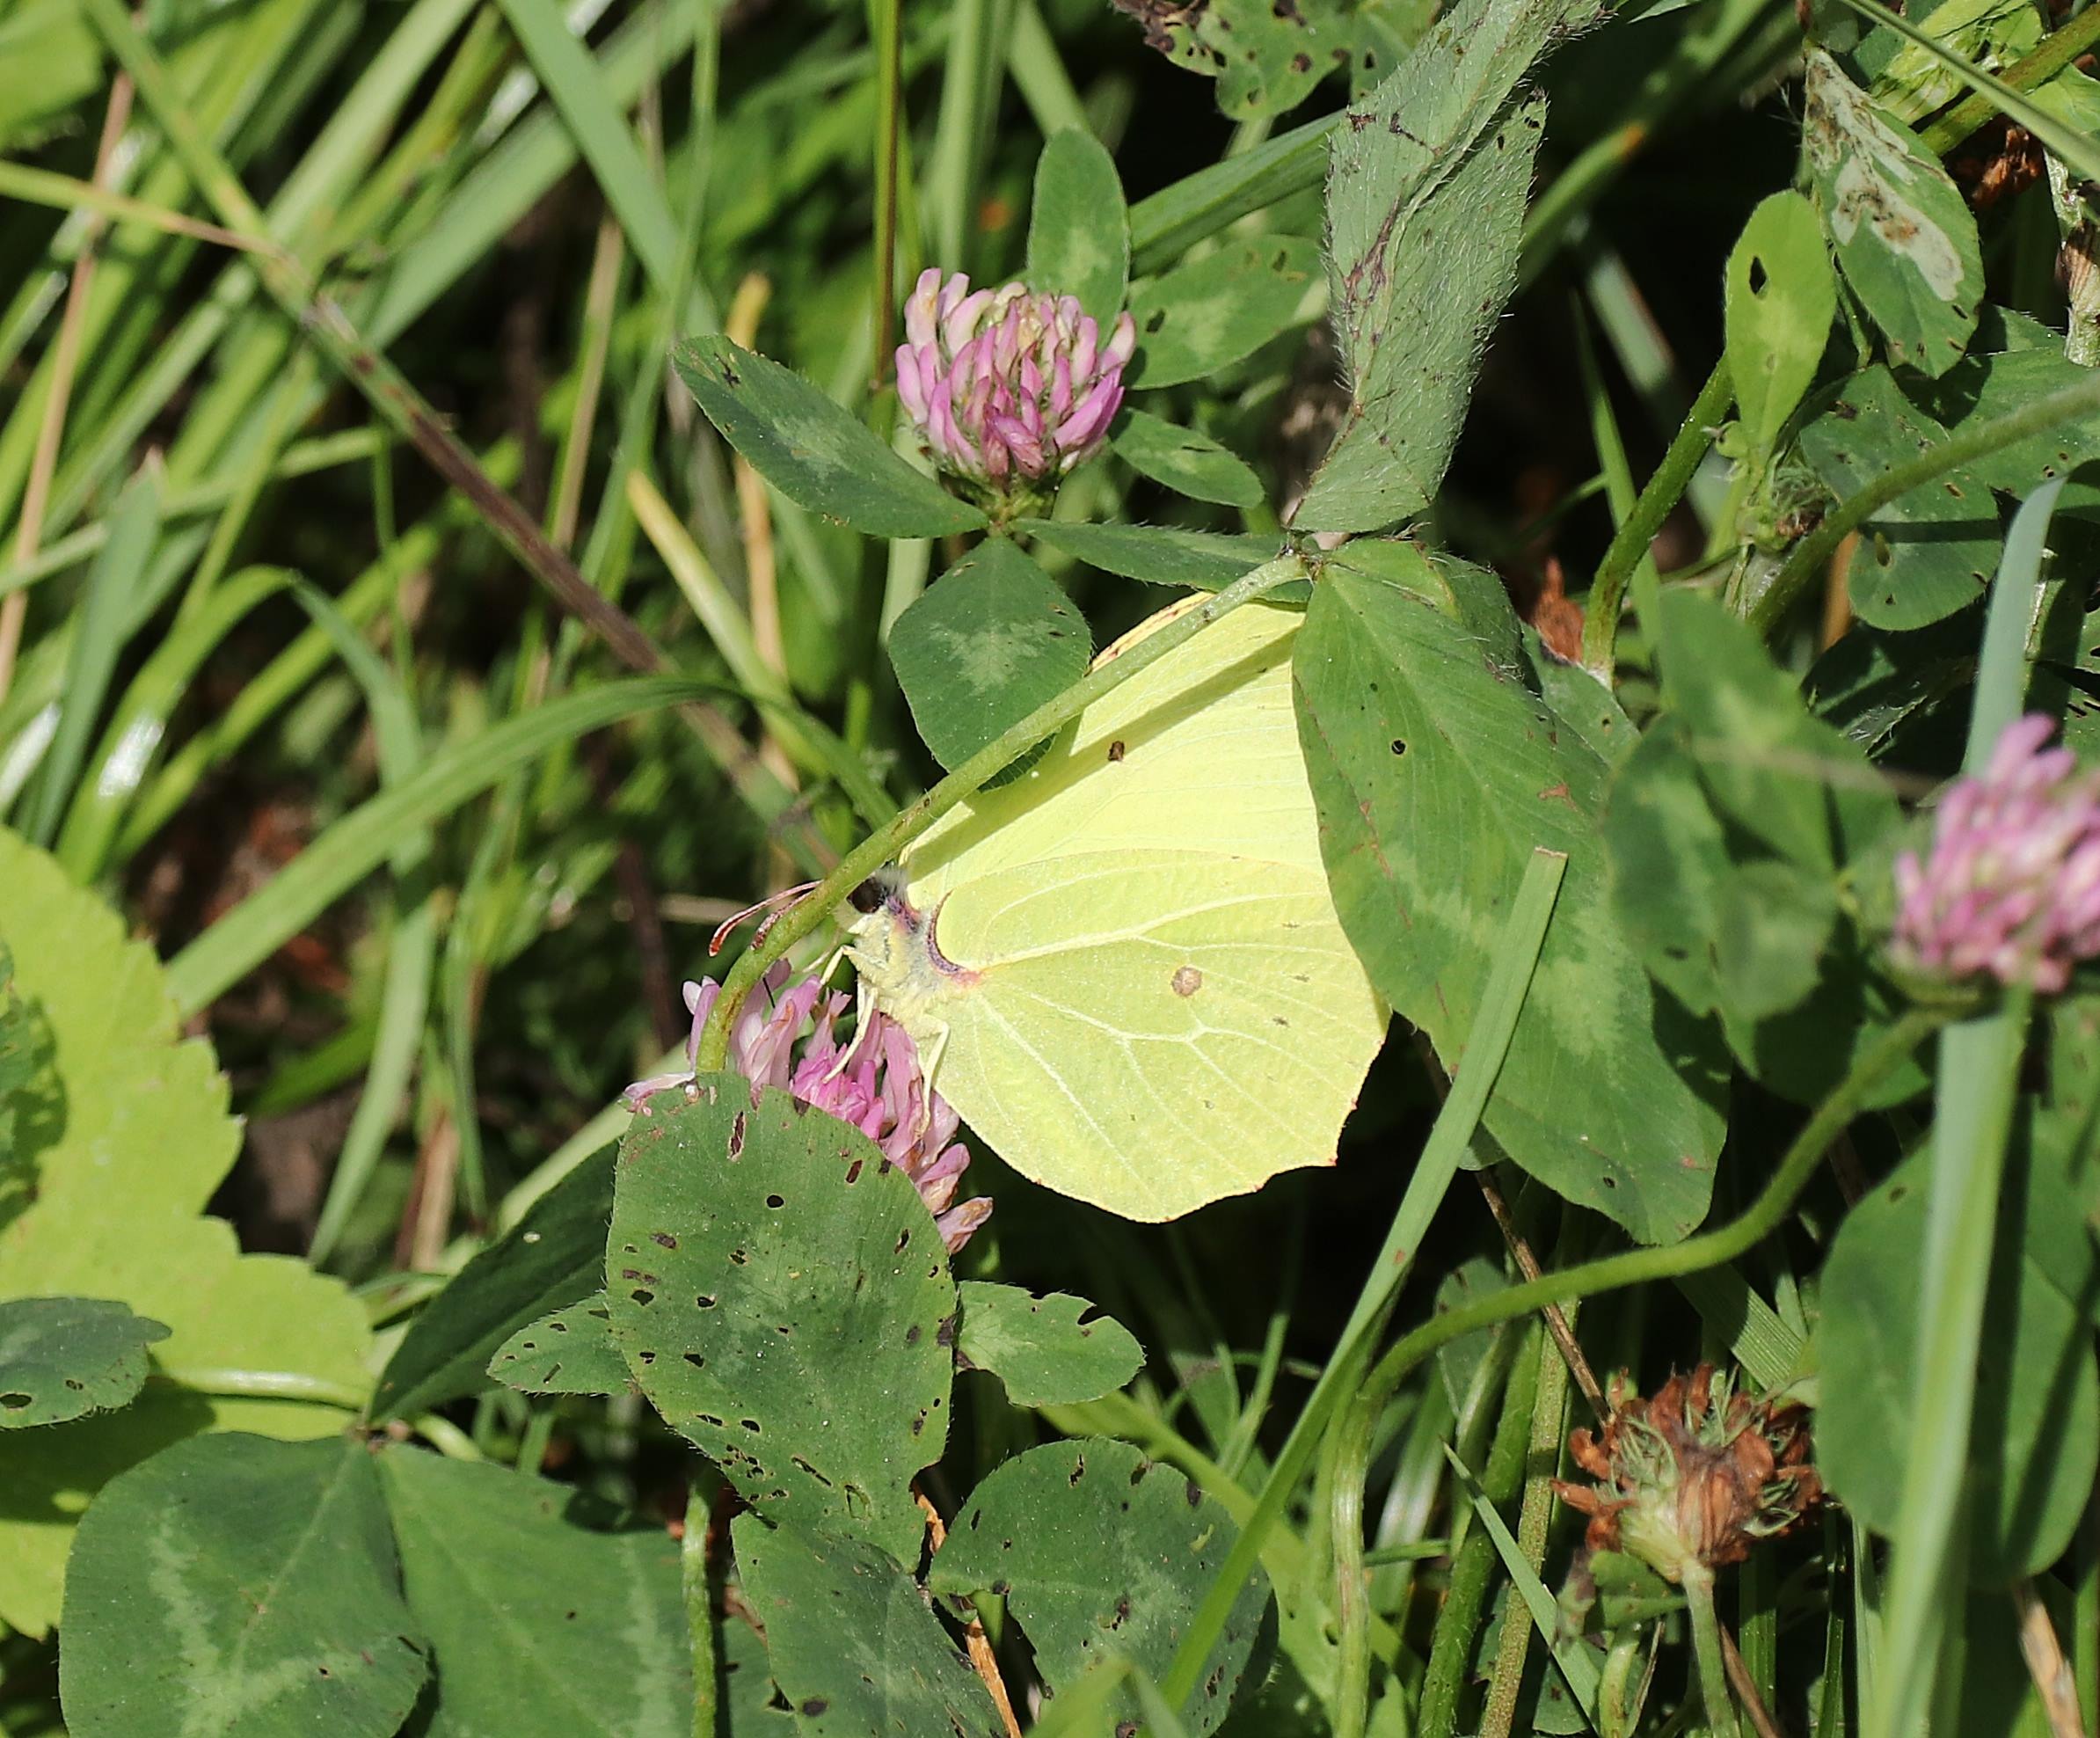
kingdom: Animalia
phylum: Arthropoda
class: Insecta
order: Lepidoptera
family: Pieridae
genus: Gonepteryx
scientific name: Gonepteryx rhamni
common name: Citronsommerfugl
